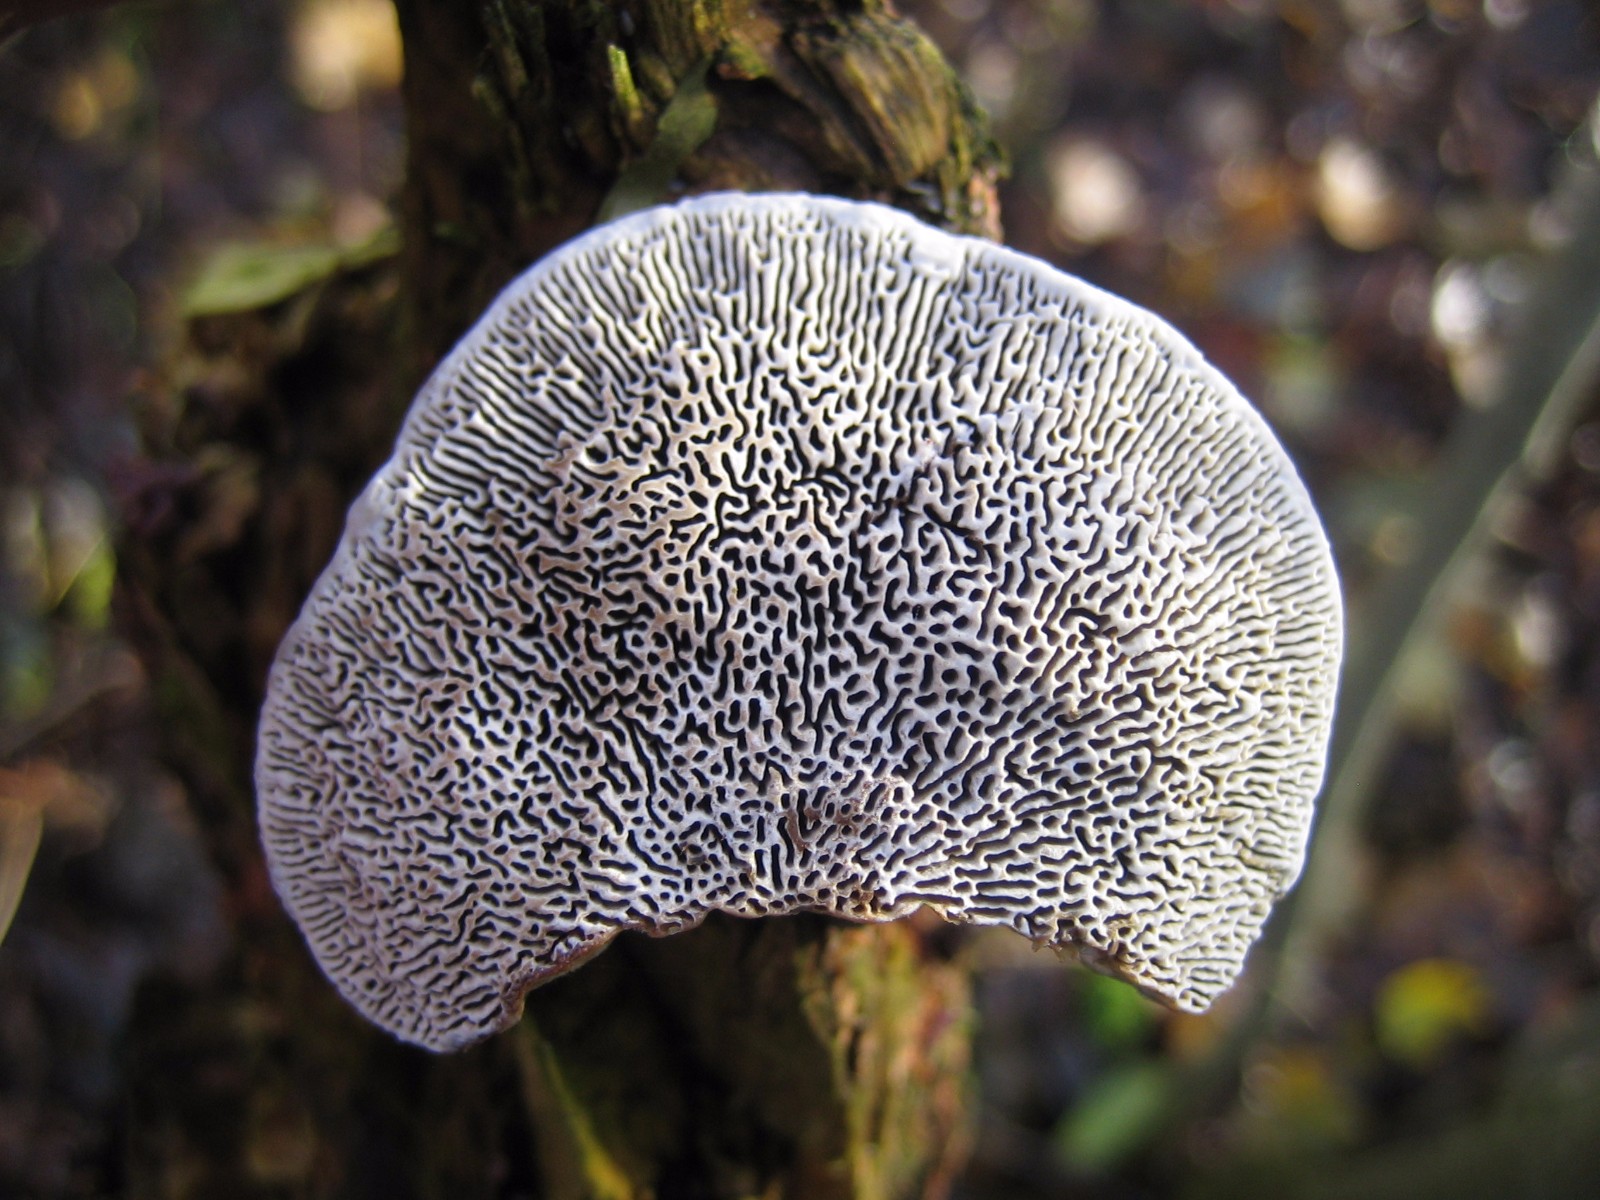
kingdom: Fungi
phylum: Basidiomycota
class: Agaricomycetes
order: Polyporales
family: Polyporaceae
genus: Daedaleopsis
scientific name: Daedaleopsis confragosa
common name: rødmende læderporesvamp
